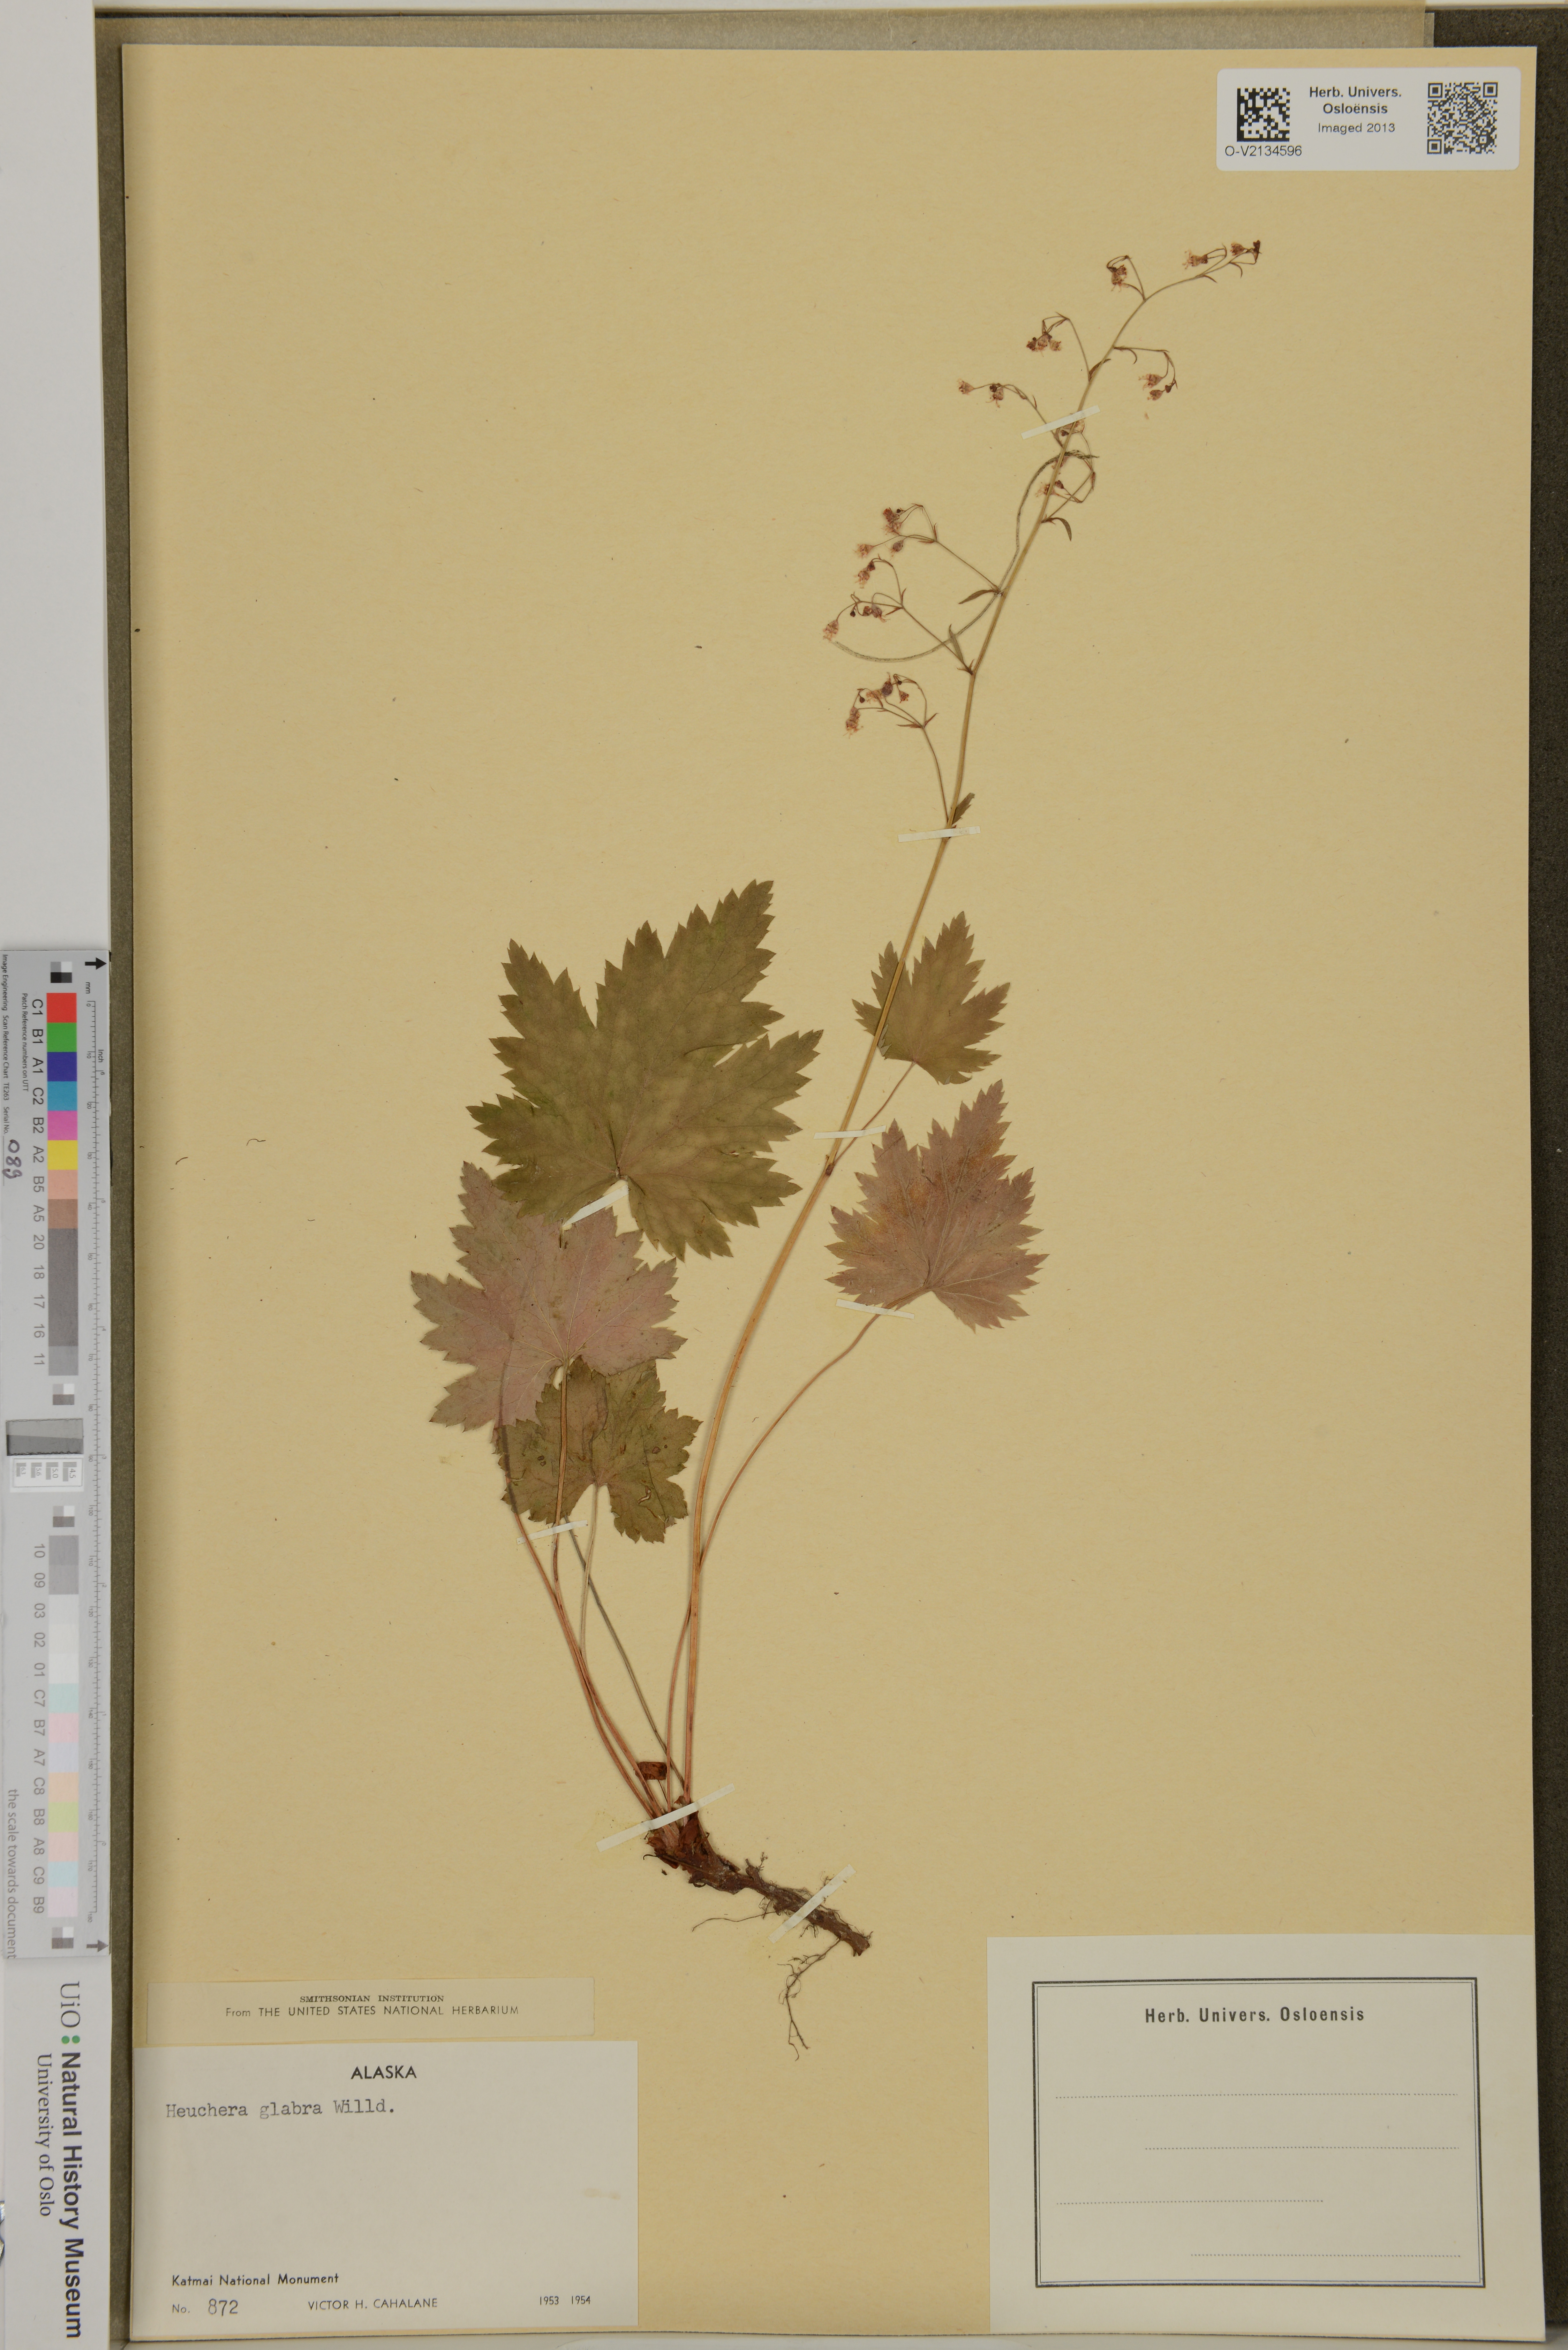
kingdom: Plantae
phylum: Tracheophyta
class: Magnoliopsida
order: Saxifragales
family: Saxifragaceae
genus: Heuchera
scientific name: Heuchera glabra
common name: Alpine alumroot
